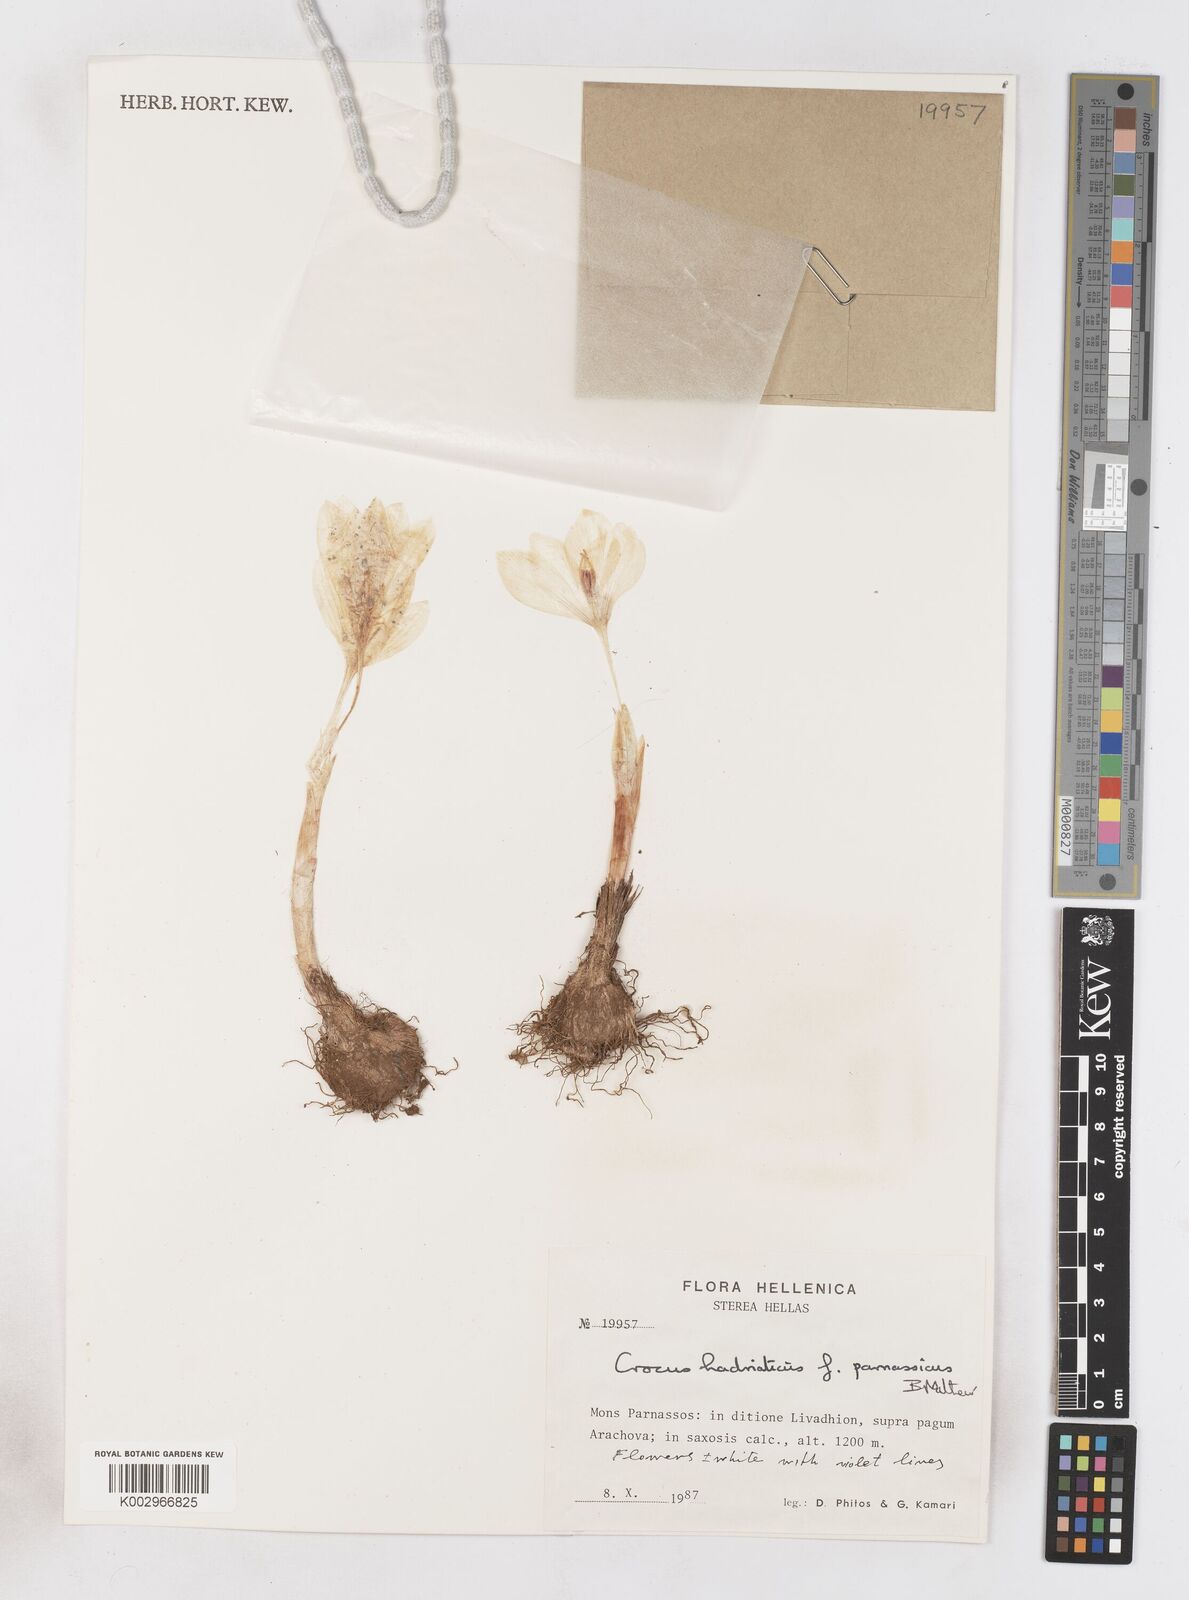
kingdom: Plantae
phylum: Tracheophyta
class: Liliopsida
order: Asparagales
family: Iridaceae
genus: Crocus
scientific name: Crocus hadriaticus
